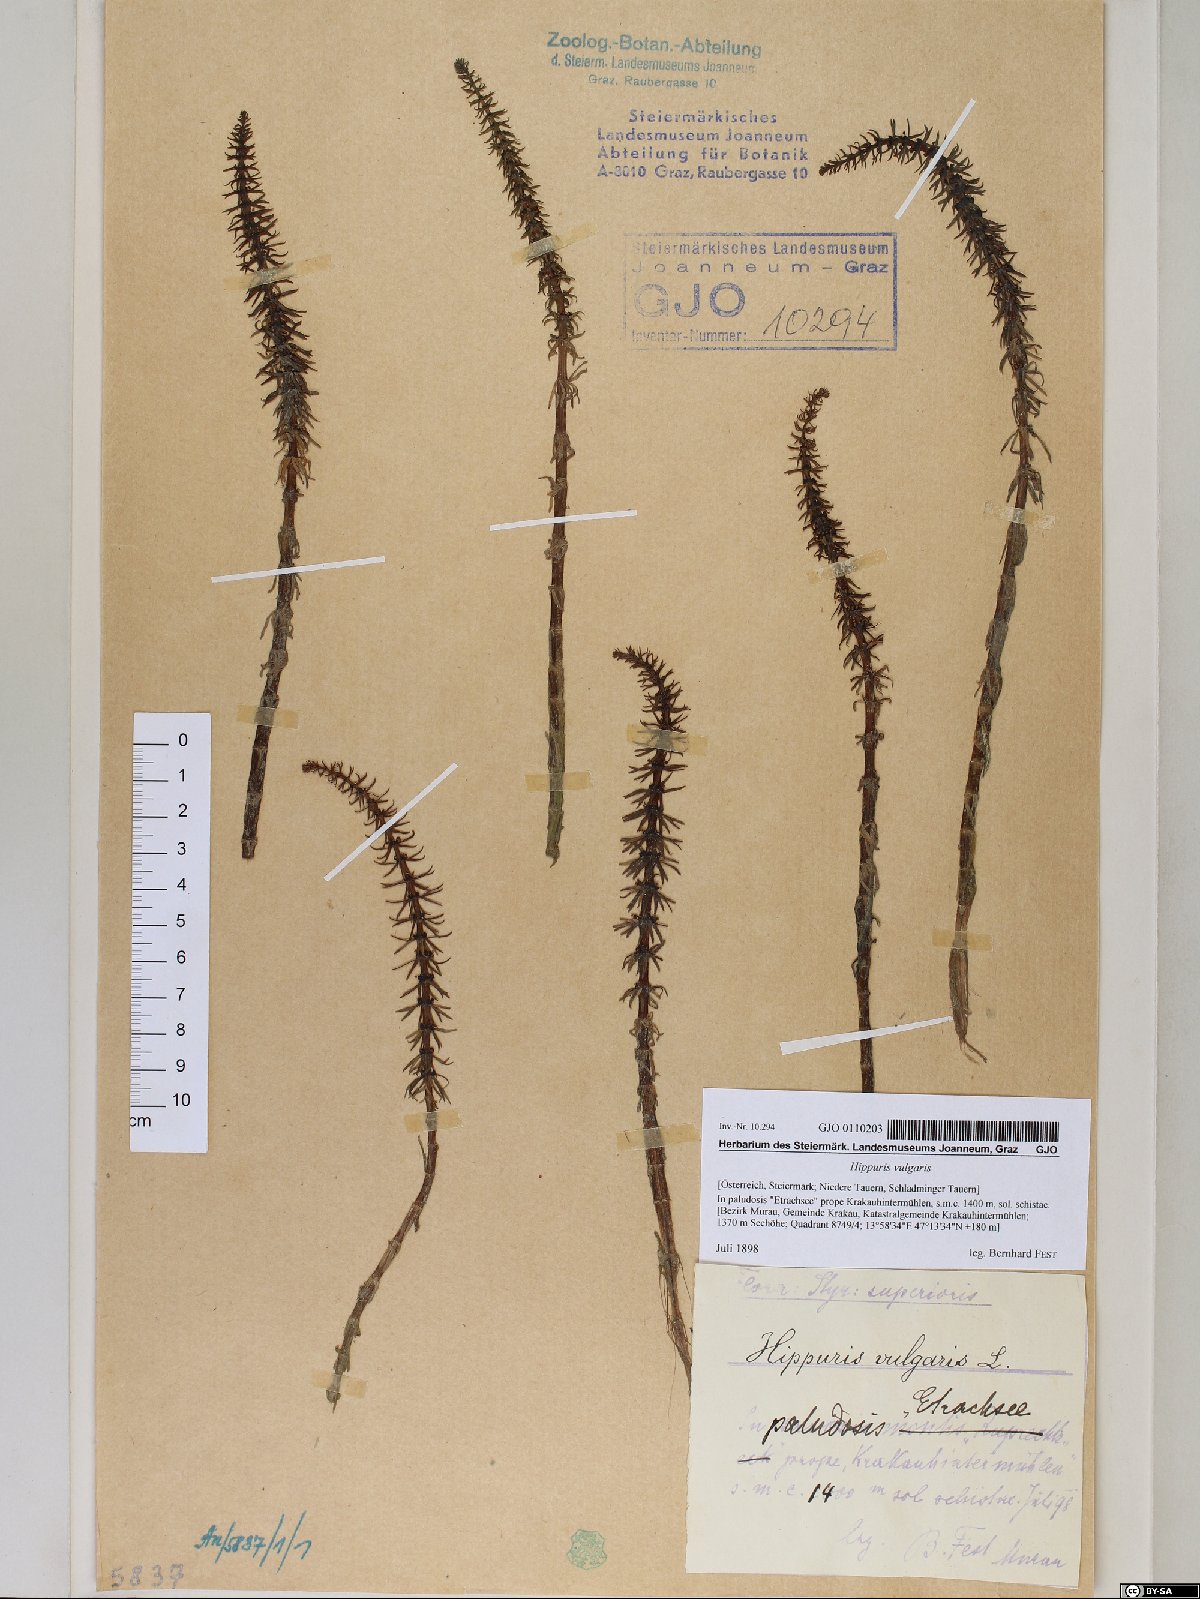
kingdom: Plantae
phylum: Tracheophyta
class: Magnoliopsida
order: Lamiales
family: Plantaginaceae
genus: Hippuris
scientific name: Hippuris vulgaris
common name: Mare's-tail
